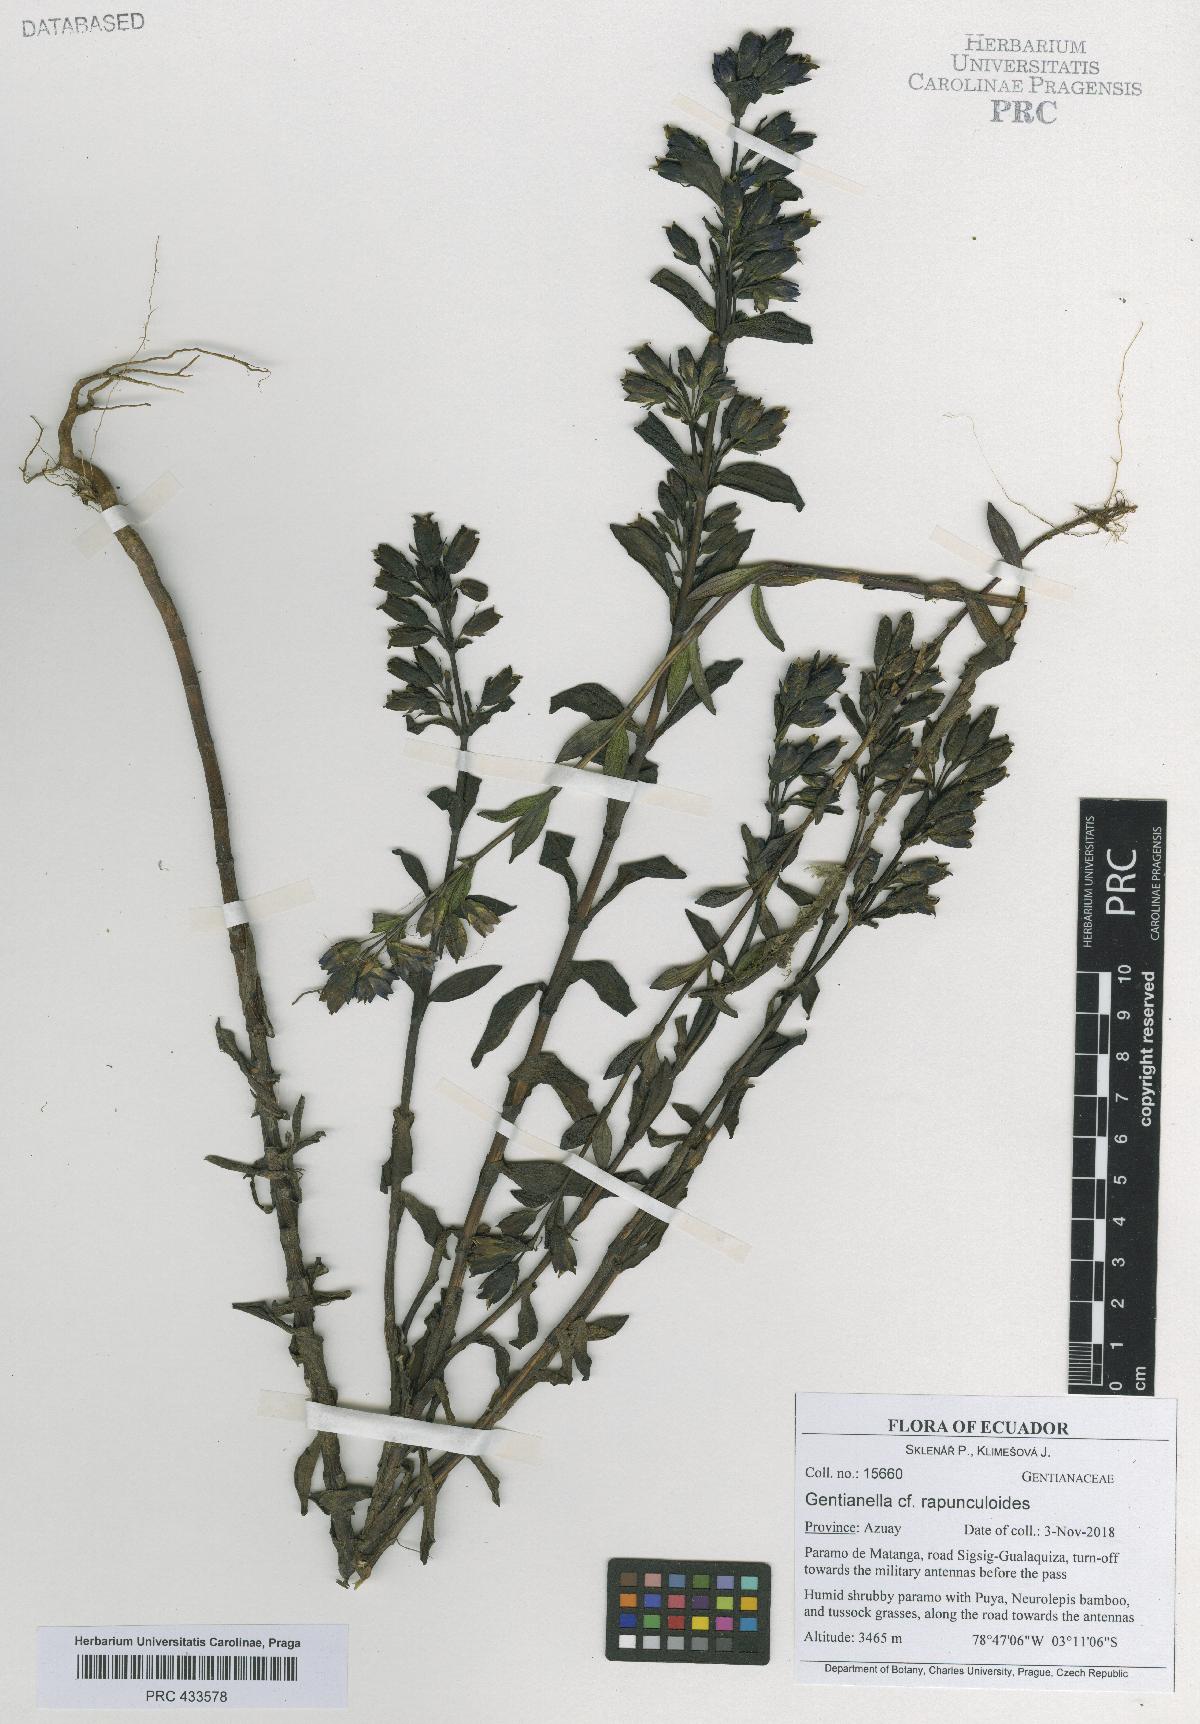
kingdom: Plantae
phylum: Tracheophyta
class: Magnoliopsida
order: Gentianales
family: Gentianaceae
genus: Gentianella
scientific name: Gentianella rapunculoides
